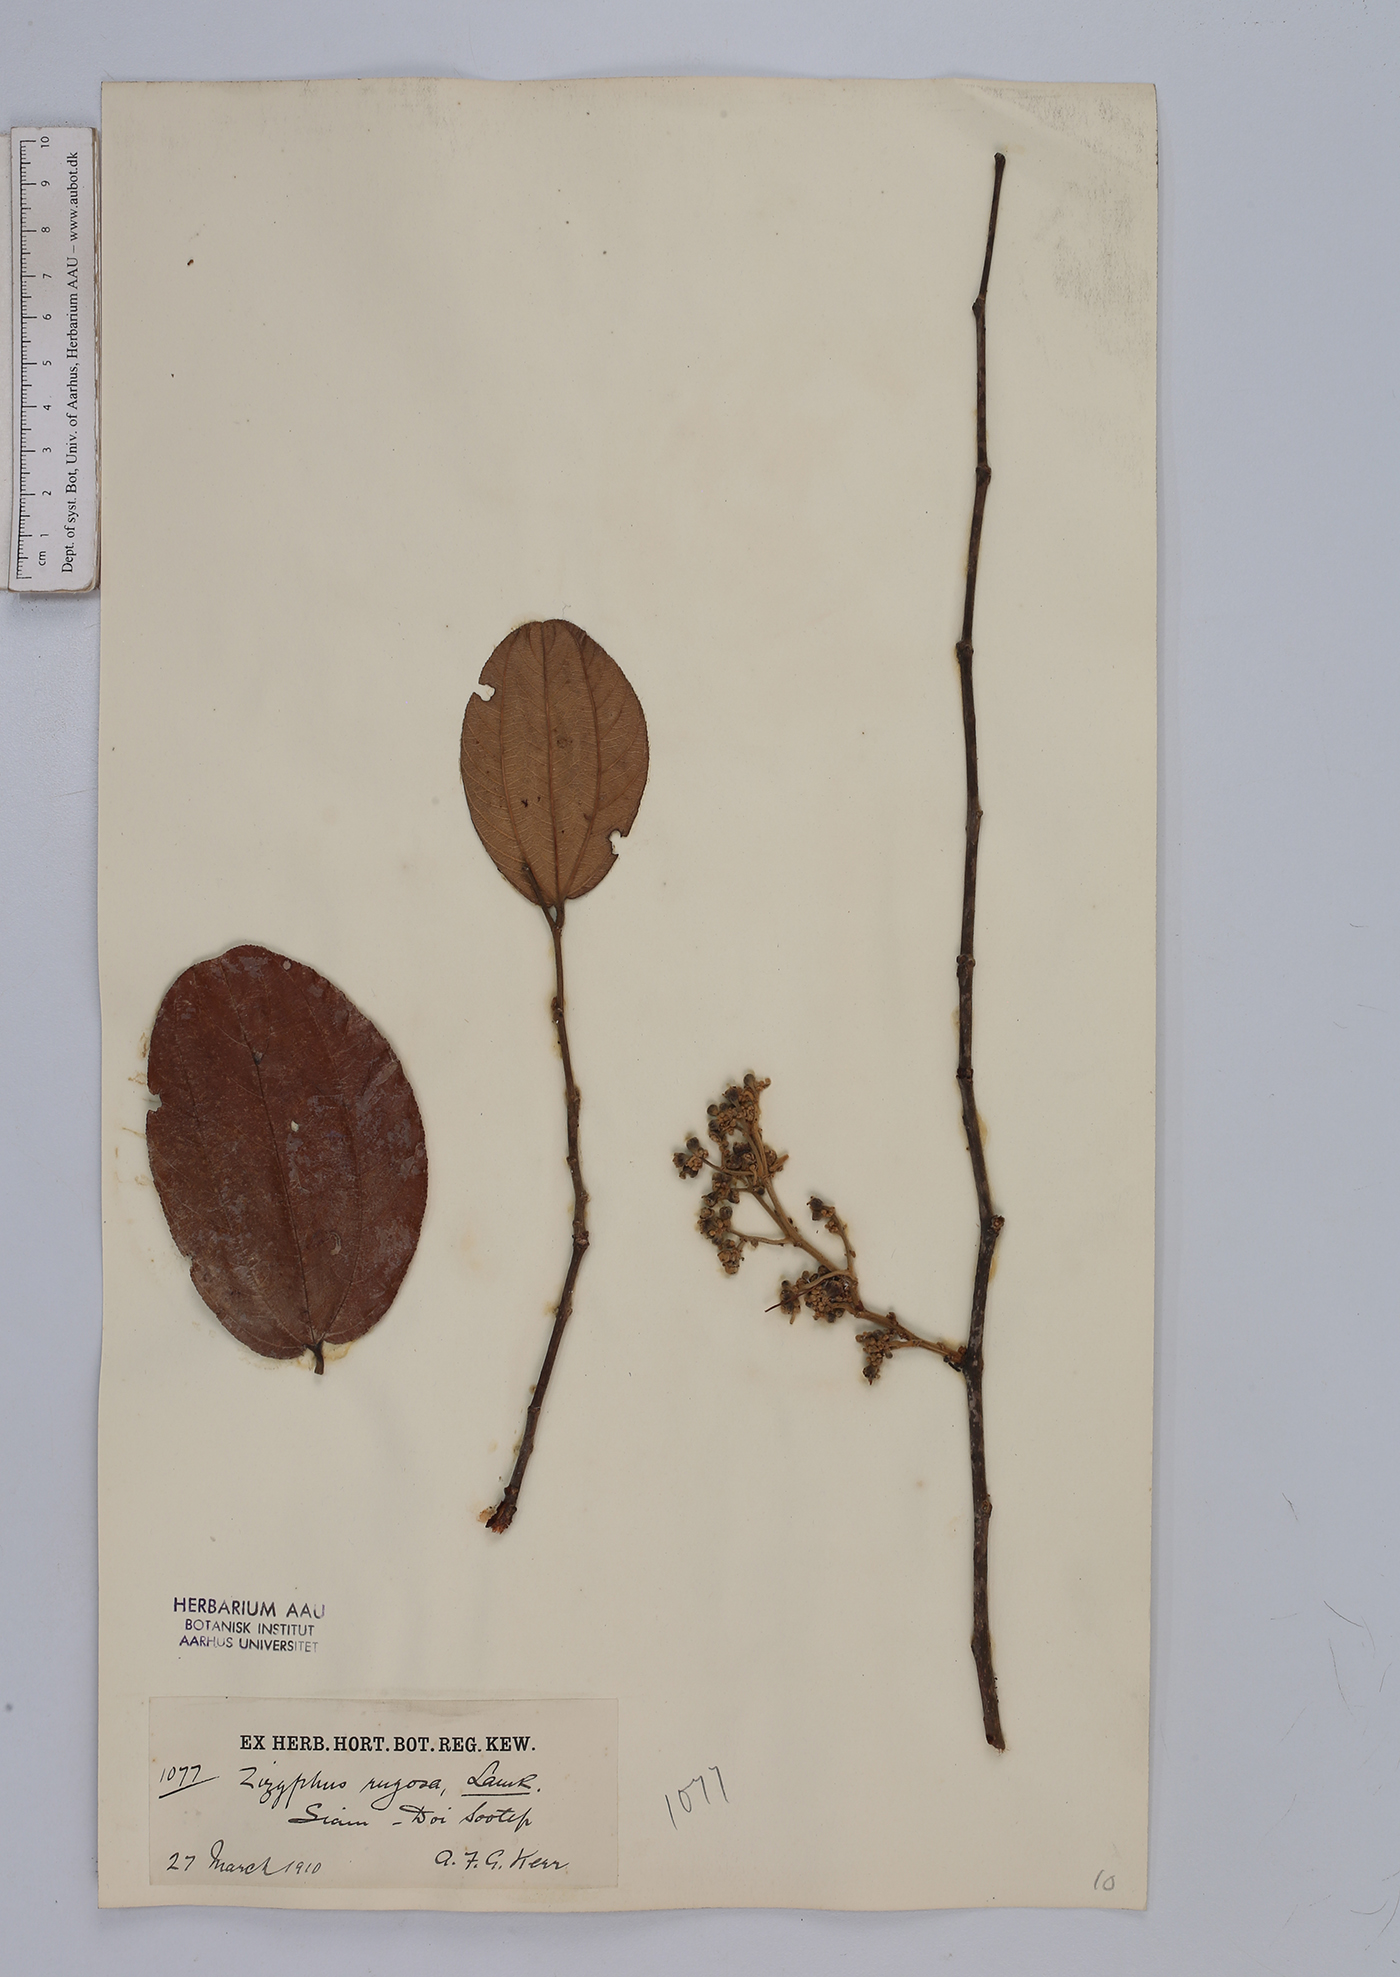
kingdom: Plantae
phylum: Tracheophyta
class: Magnoliopsida
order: Rosales
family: Rhamnaceae
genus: Ziziphus
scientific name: Ziziphus rugosa
